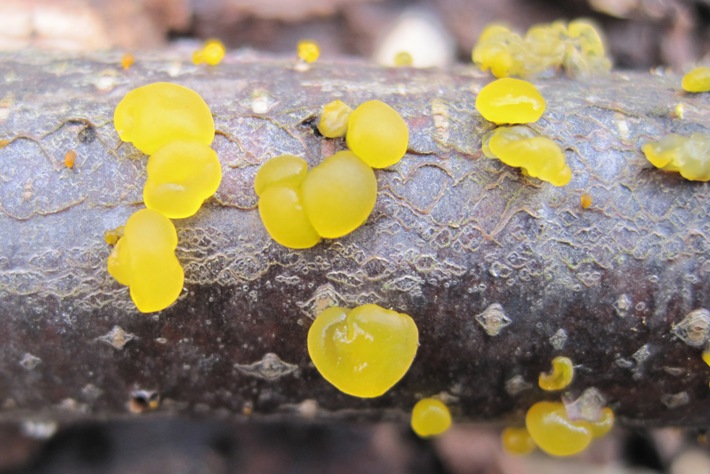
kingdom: Fungi
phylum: Basidiomycota
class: Dacrymycetes
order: Dacrymycetales
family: Dacrymycetaceae
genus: Dacrymyces
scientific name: Dacrymyces lacrymalis
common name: rynket tåresvamp
